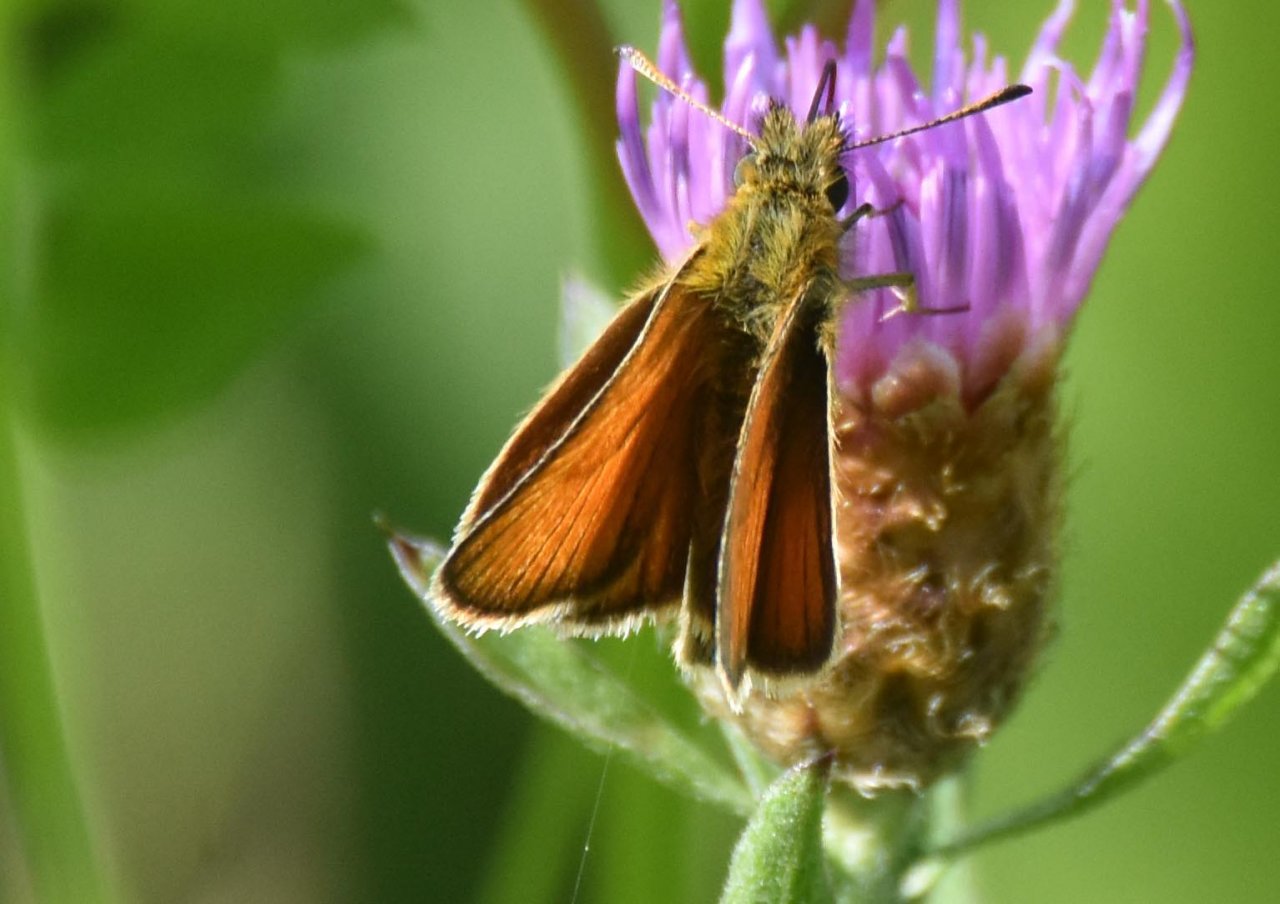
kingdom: Animalia
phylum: Arthropoda
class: Insecta
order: Lepidoptera
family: Hesperiidae
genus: Thymelicus
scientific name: Thymelicus lineola
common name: European Skipper
